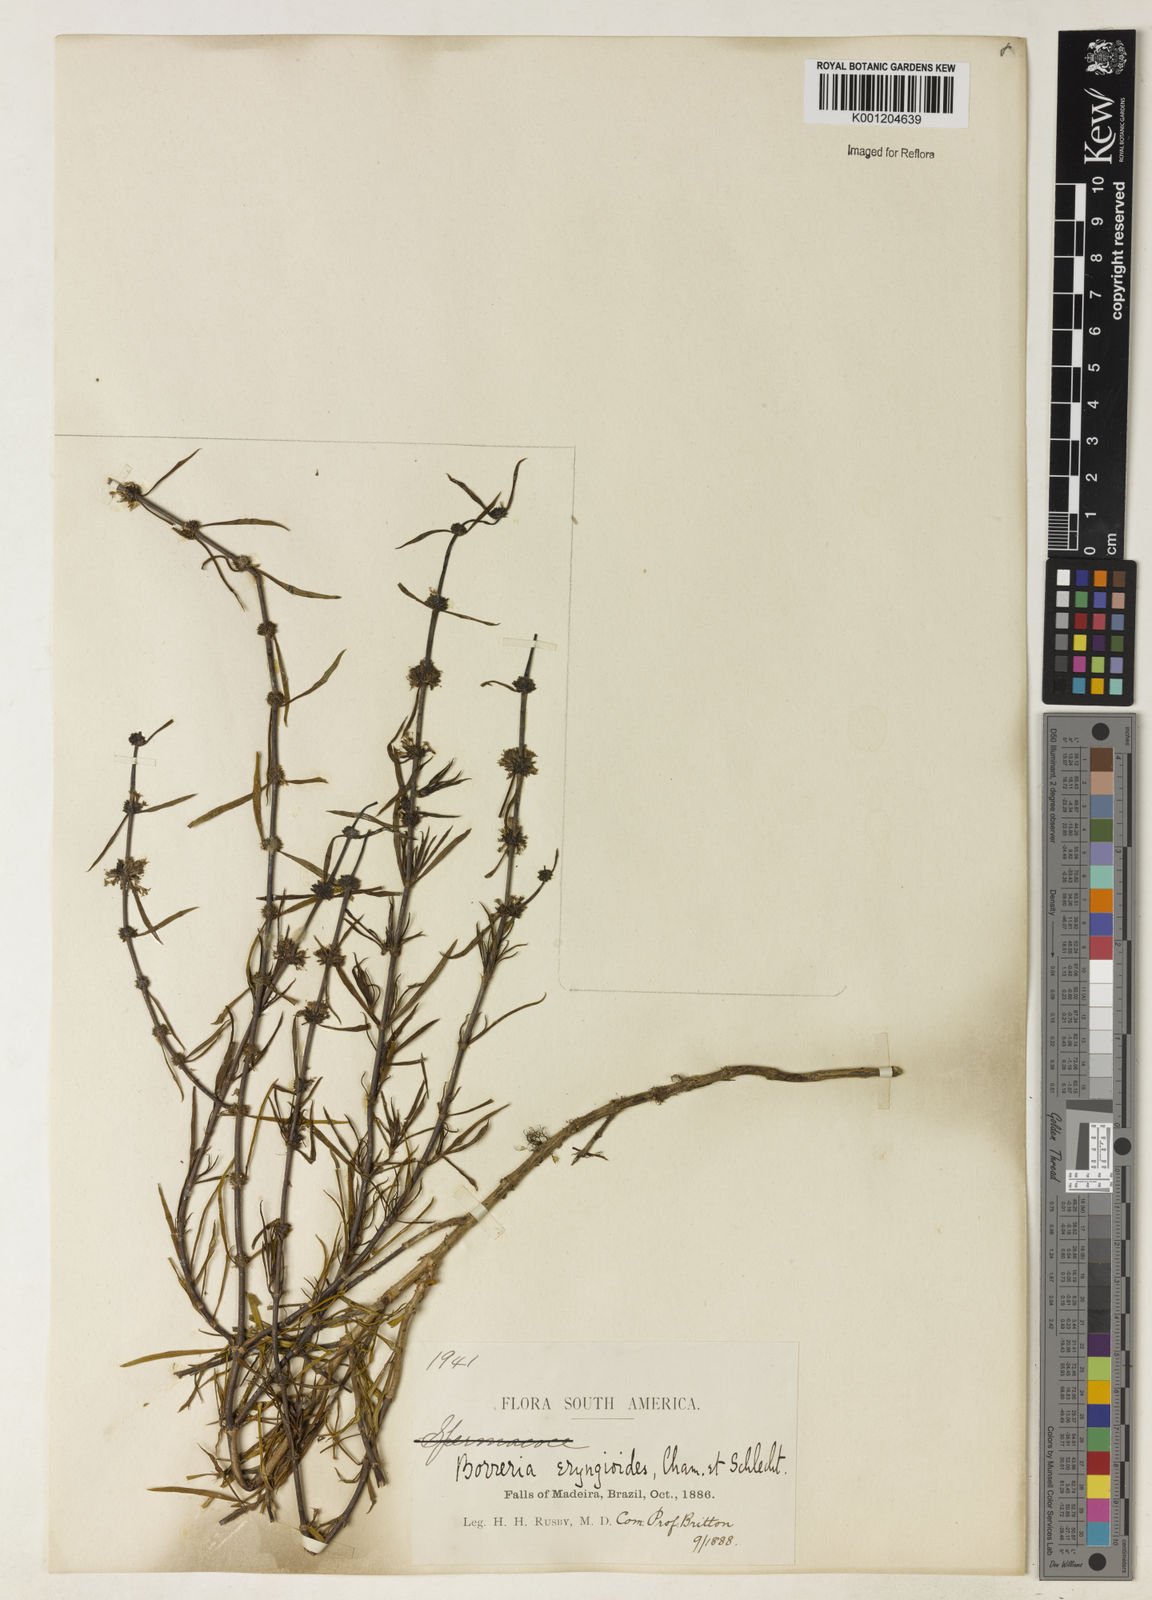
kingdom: Plantae
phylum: Tracheophyta
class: Magnoliopsida
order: Gentianales
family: Rubiaceae
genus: Staelia
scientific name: Staelia virgata
